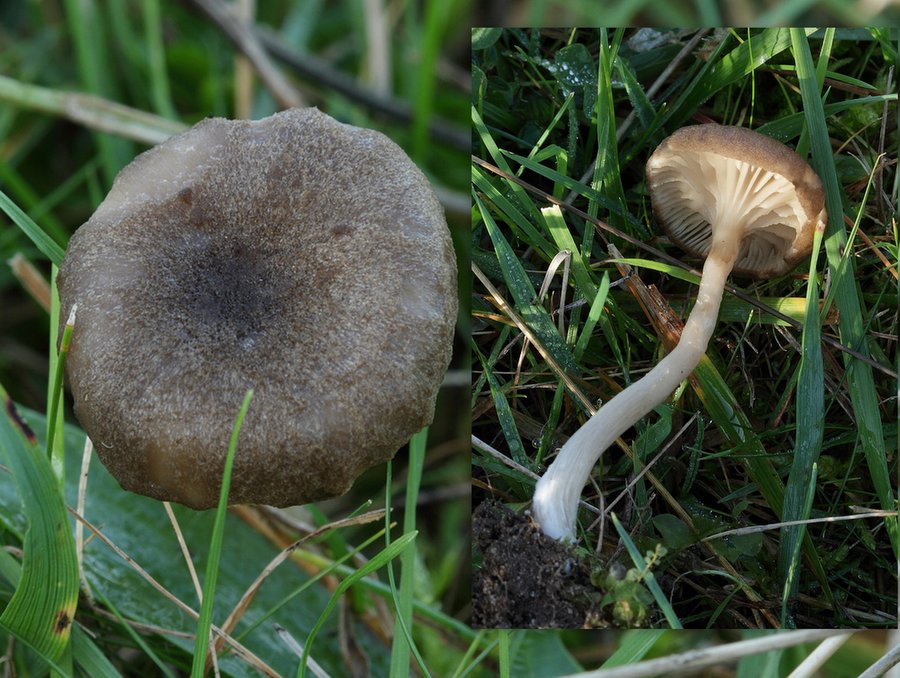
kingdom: Fungi
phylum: Basidiomycota
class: Agaricomycetes
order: Agaricales
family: Entolomataceae
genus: Entoloma
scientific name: Entoloma turci
